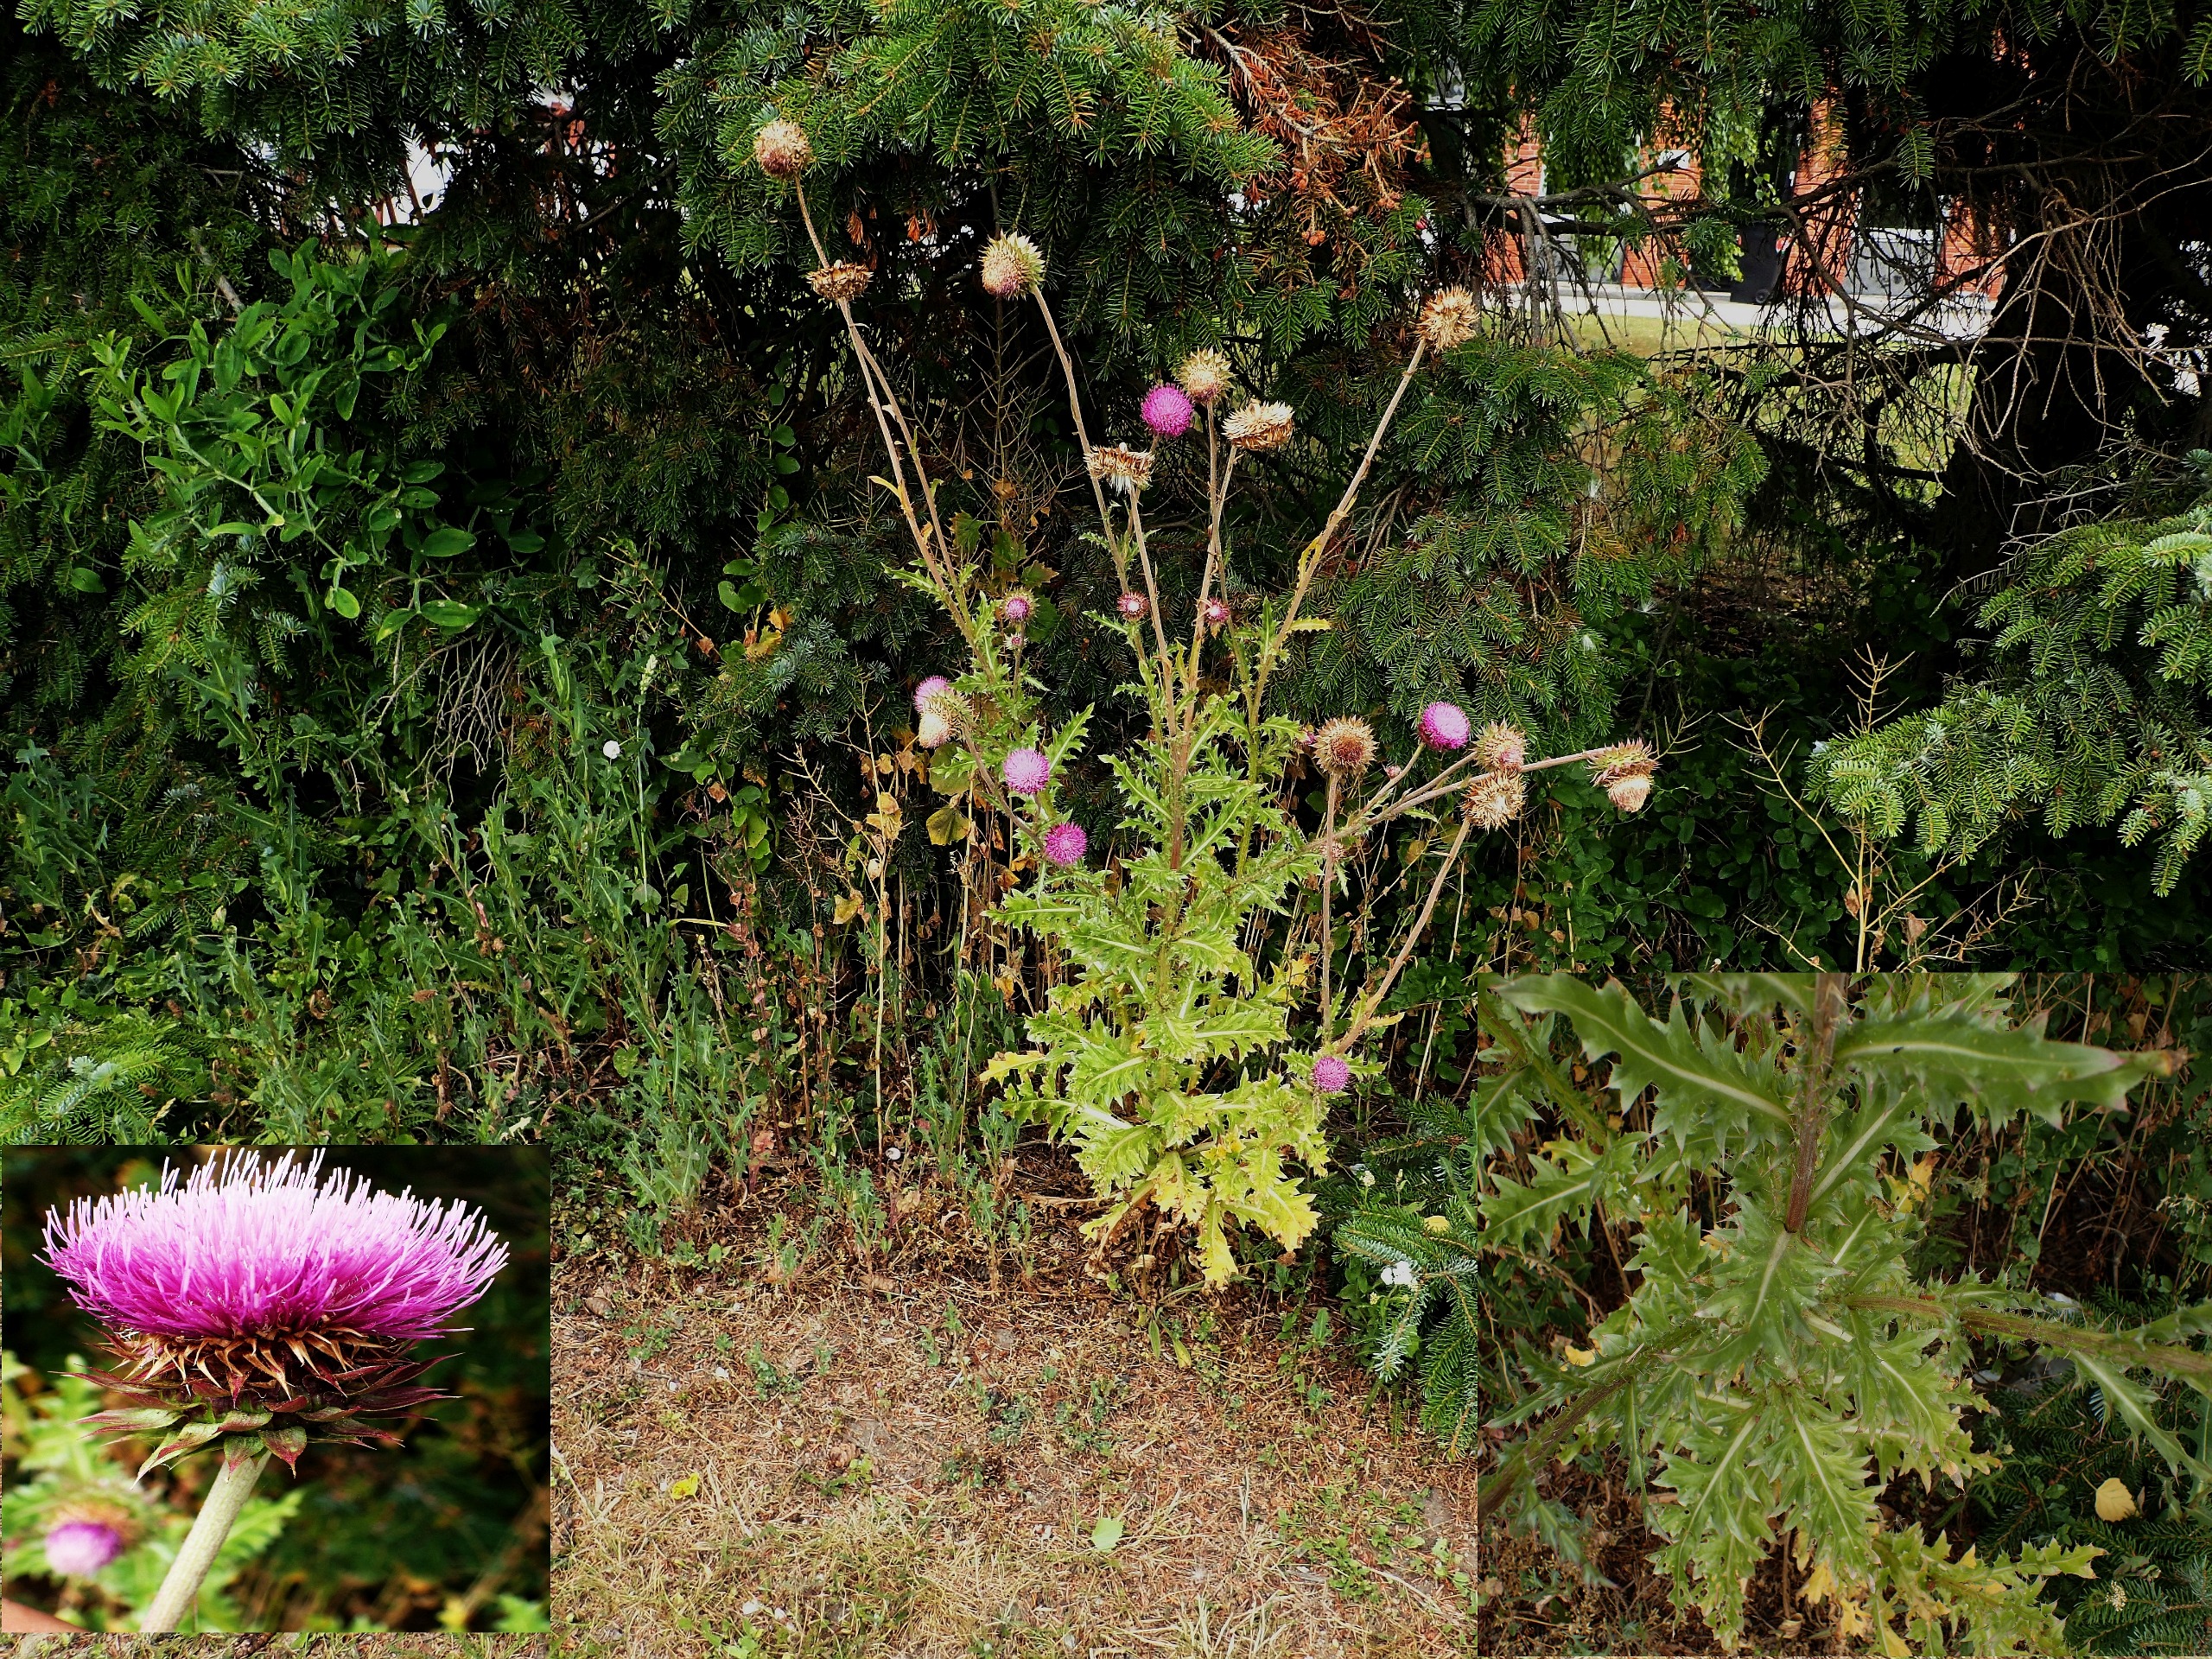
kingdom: Plantae
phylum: Tracheophyta
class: Magnoliopsida
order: Asterales
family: Asteraceae
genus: Carduus
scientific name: Carduus nutans
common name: Olymp-tidsel
